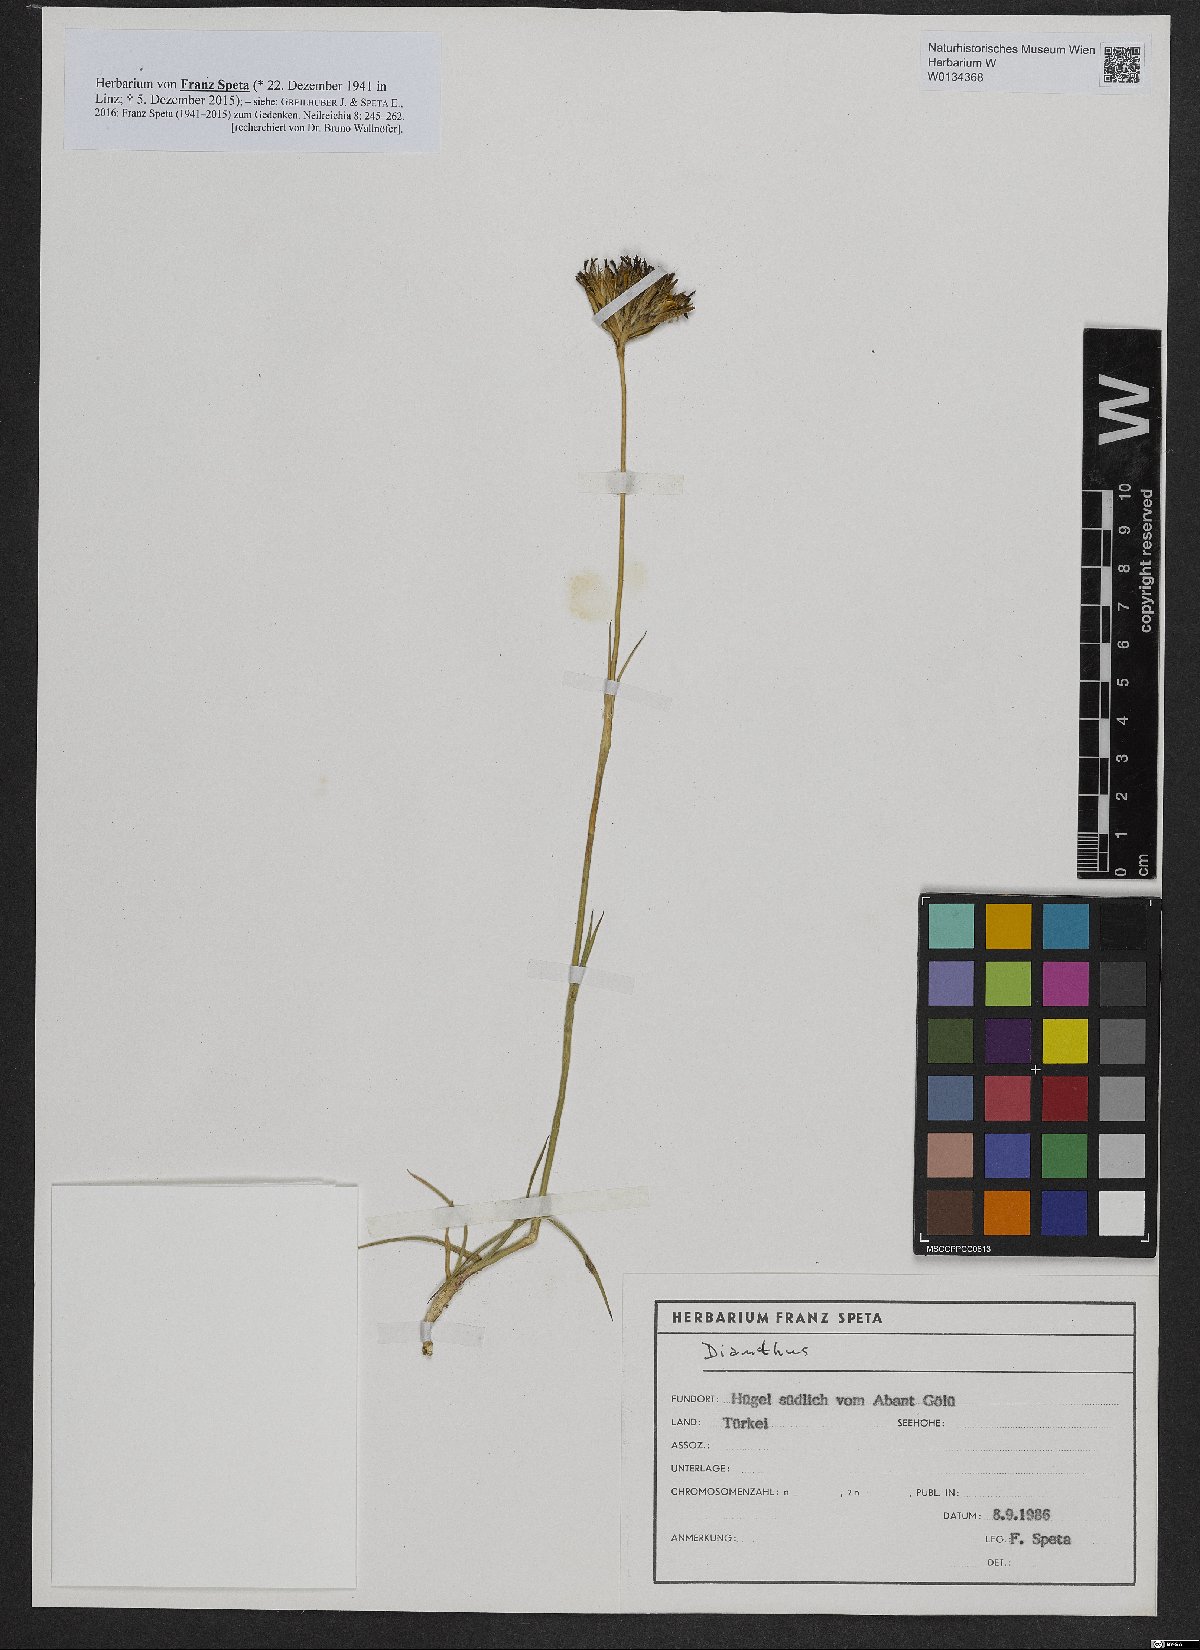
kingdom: Plantae
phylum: Tracheophyta
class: Magnoliopsida
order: Caryophyllales
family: Caryophyllaceae
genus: Dianthus
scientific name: Dianthus
